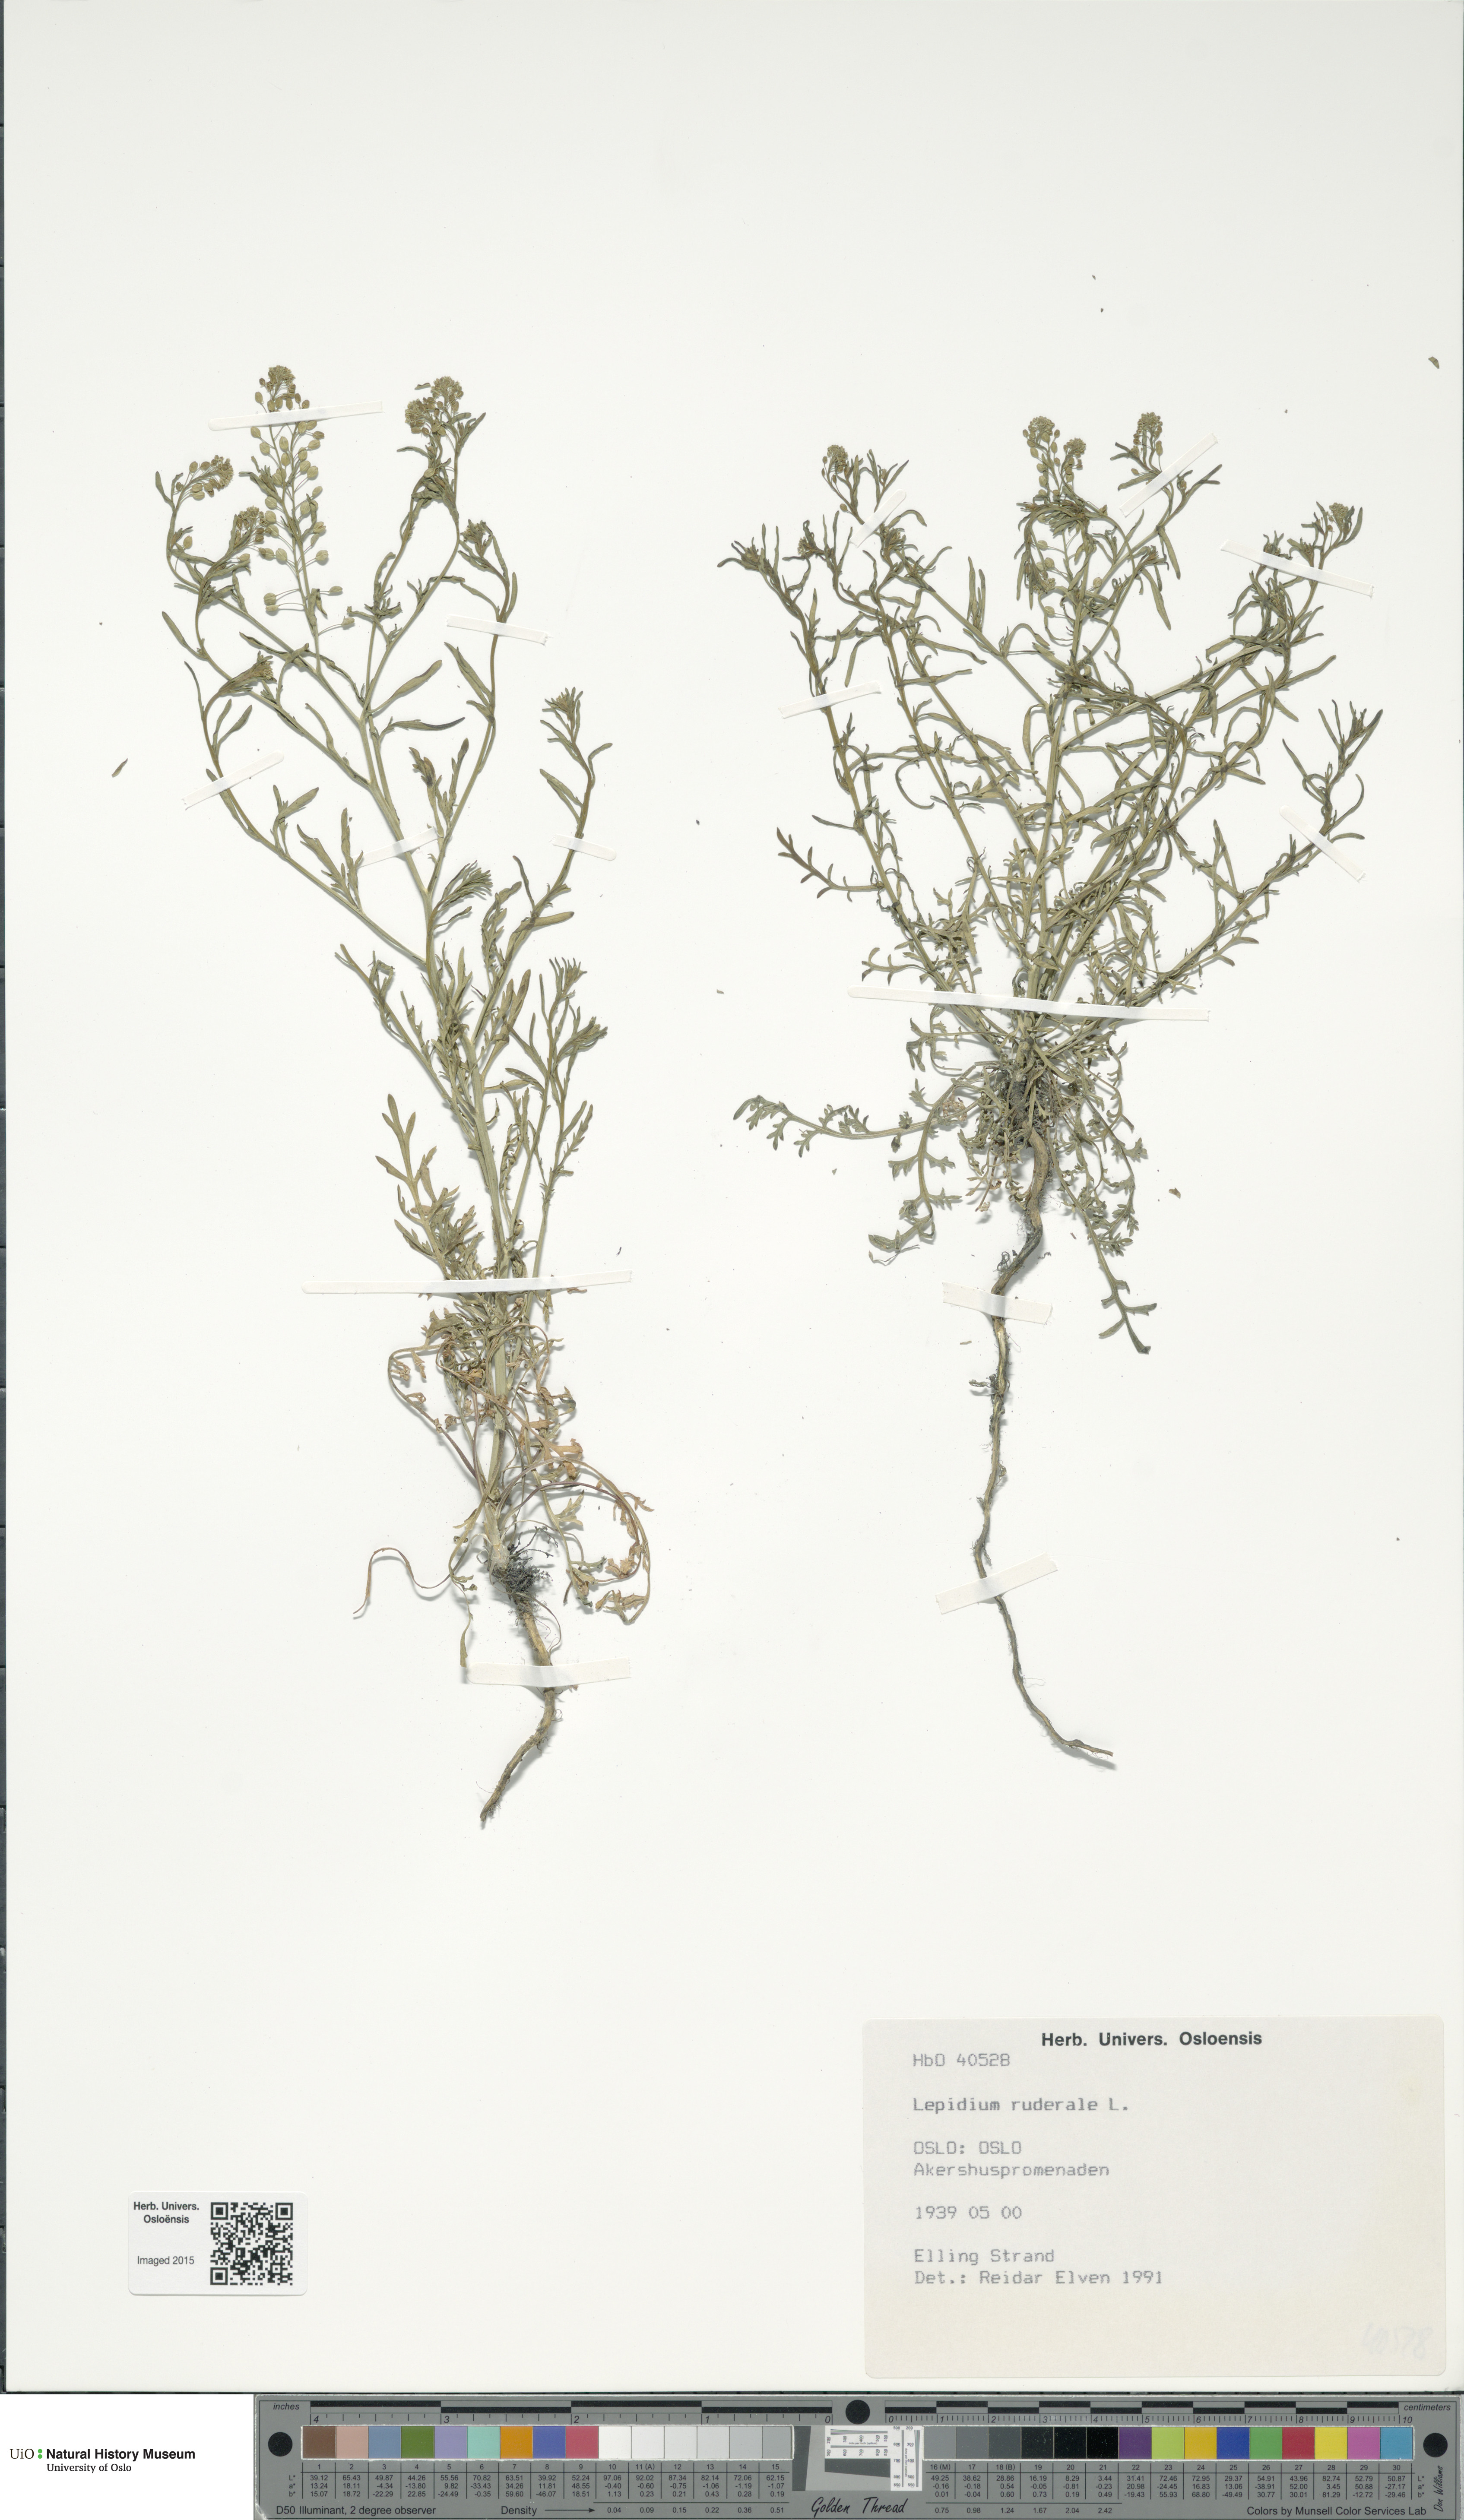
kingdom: Plantae
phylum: Tracheophyta
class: Magnoliopsida
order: Brassicales
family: Brassicaceae
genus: Lepidium
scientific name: Lepidium ruderale
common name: Narrow-leaved pepperwort
